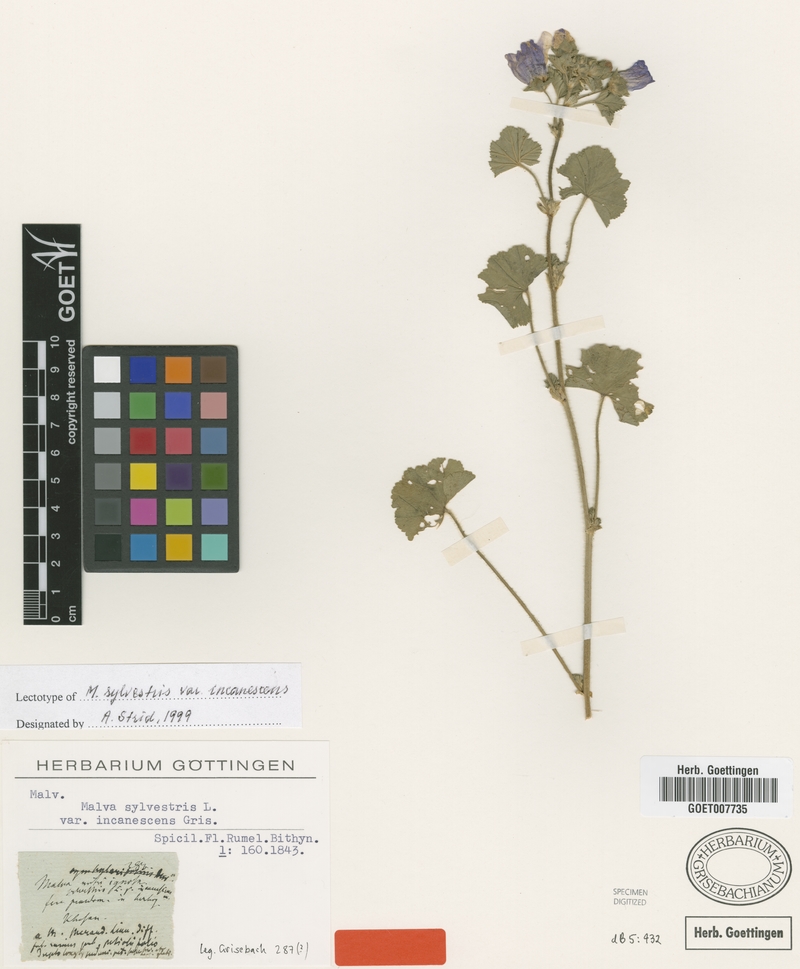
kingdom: Plantae
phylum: Tracheophyta
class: Magnoliopsida
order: Malvales
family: Malvaceae
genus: Malva
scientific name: Malva sylvestris
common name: Common mallow
